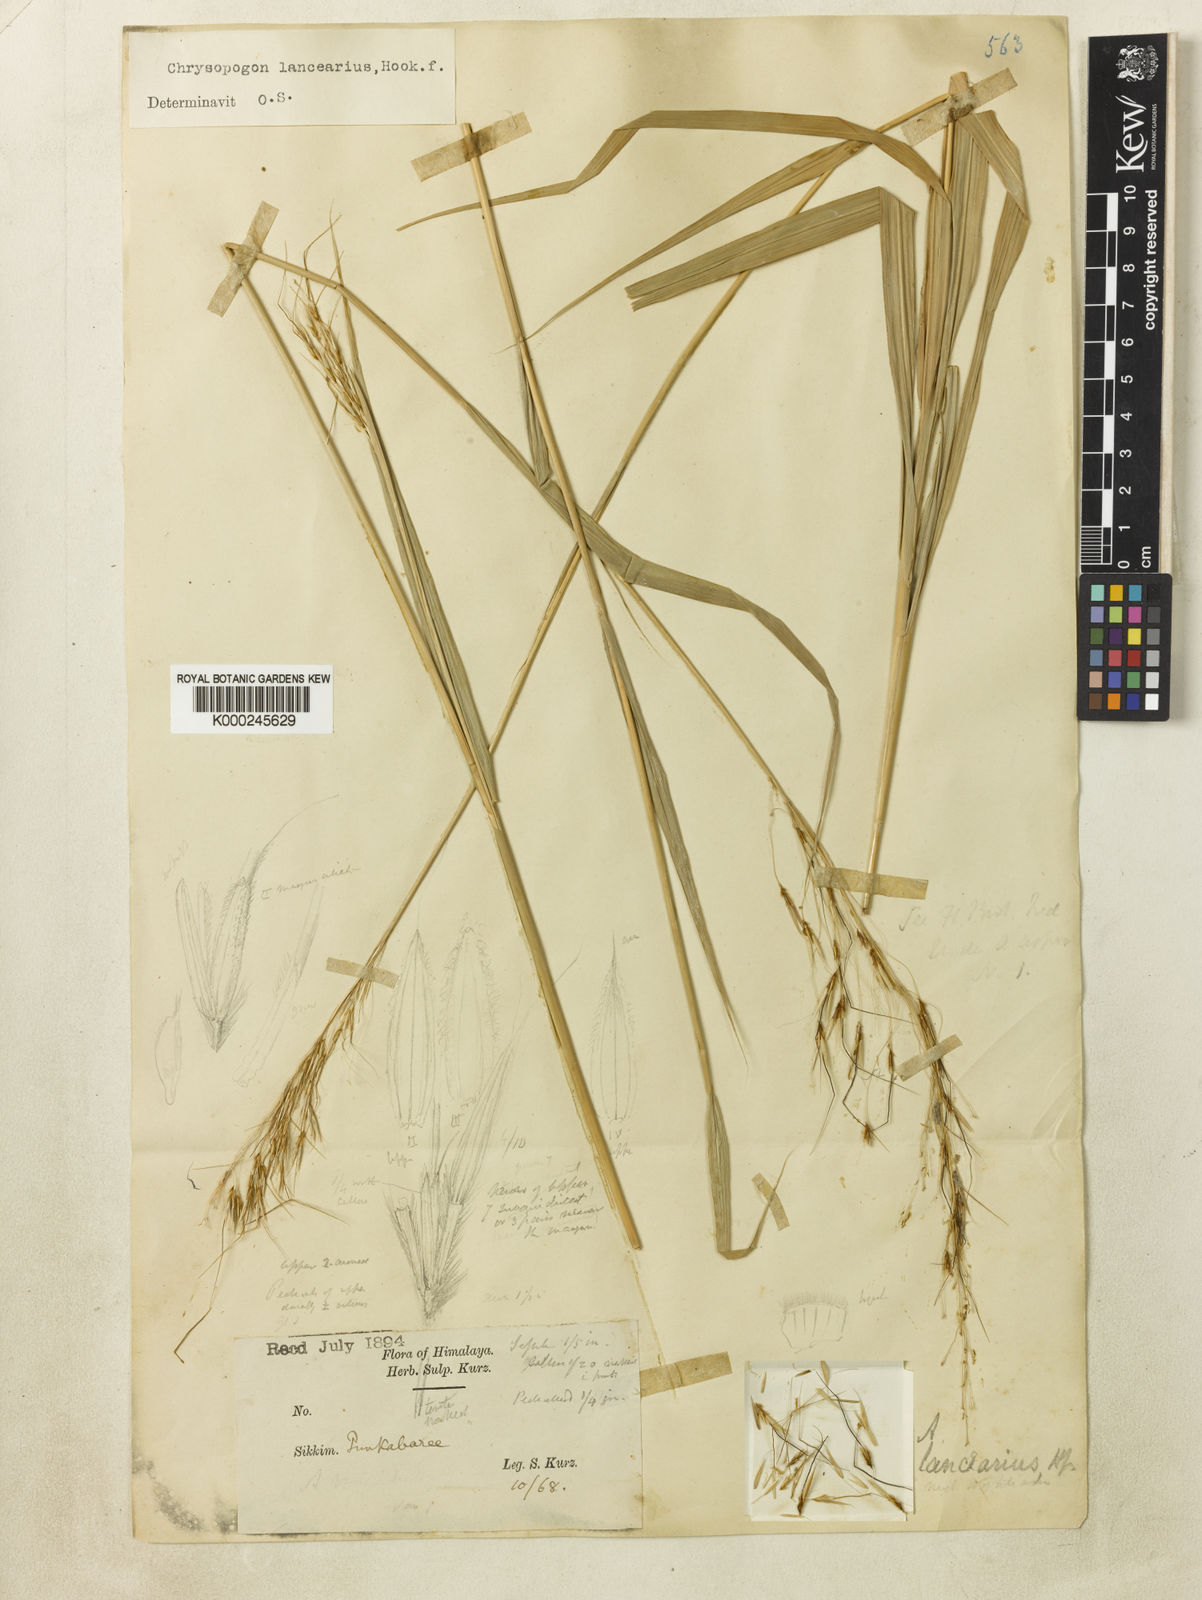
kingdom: Plantae
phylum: Tracheophyta
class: Liliopsida
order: Poales
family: Poaceae
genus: Chrysopogon
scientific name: Chrysopogon lancearius
